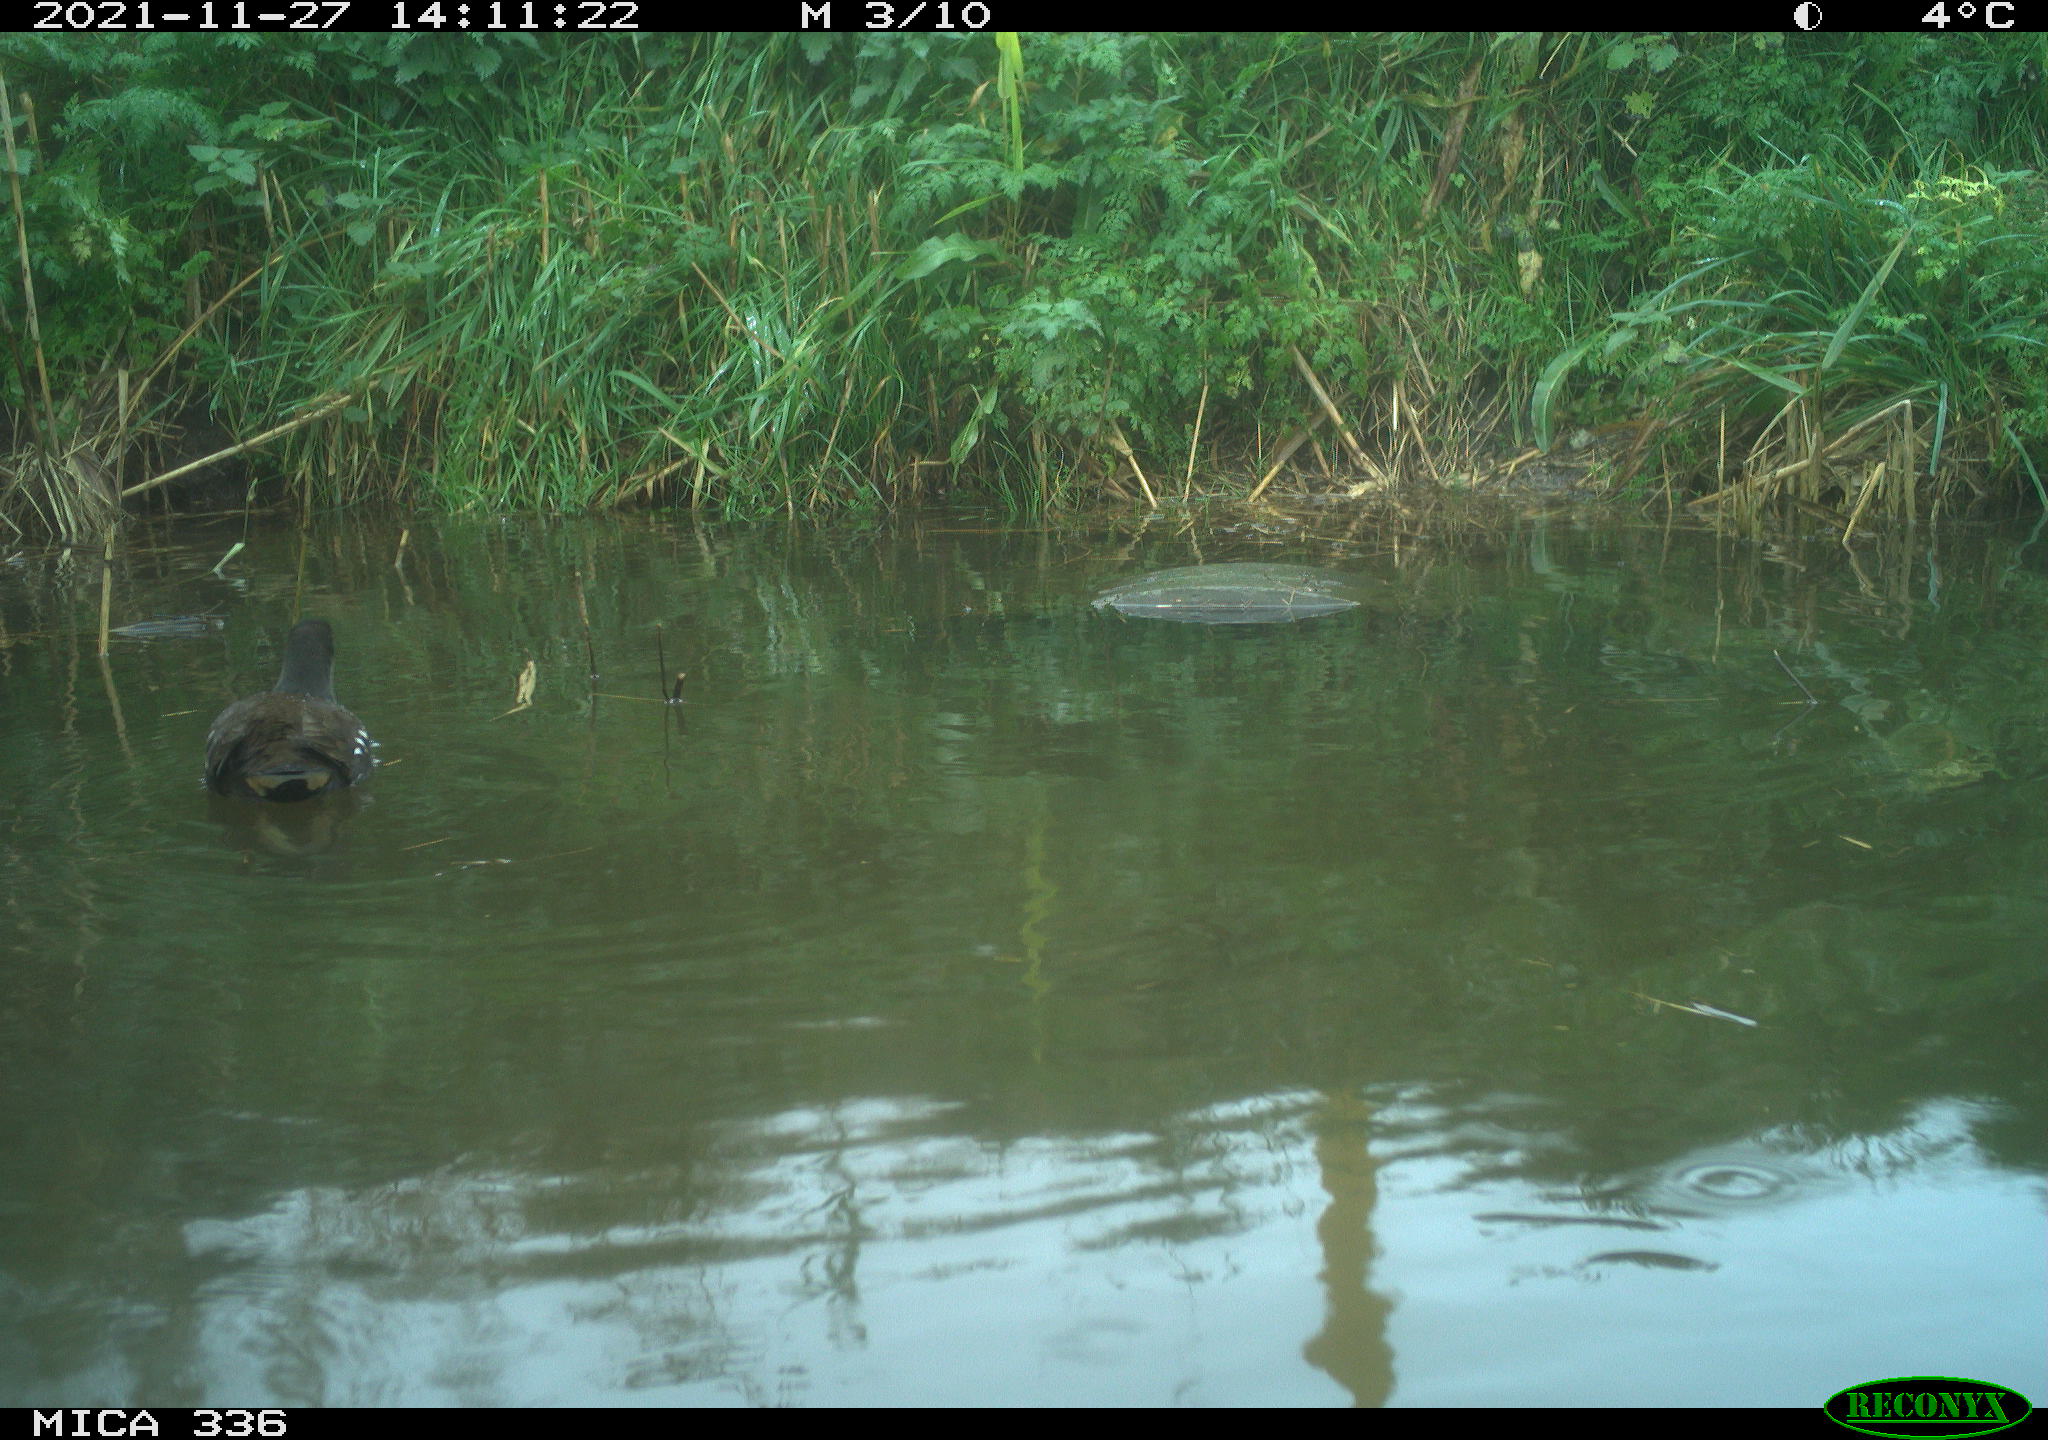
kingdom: Animalia
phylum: Chordata
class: Aves
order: Gruiformes
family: Rallidae
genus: Gallinula
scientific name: Gallinula chloropus
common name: Common moorhen
